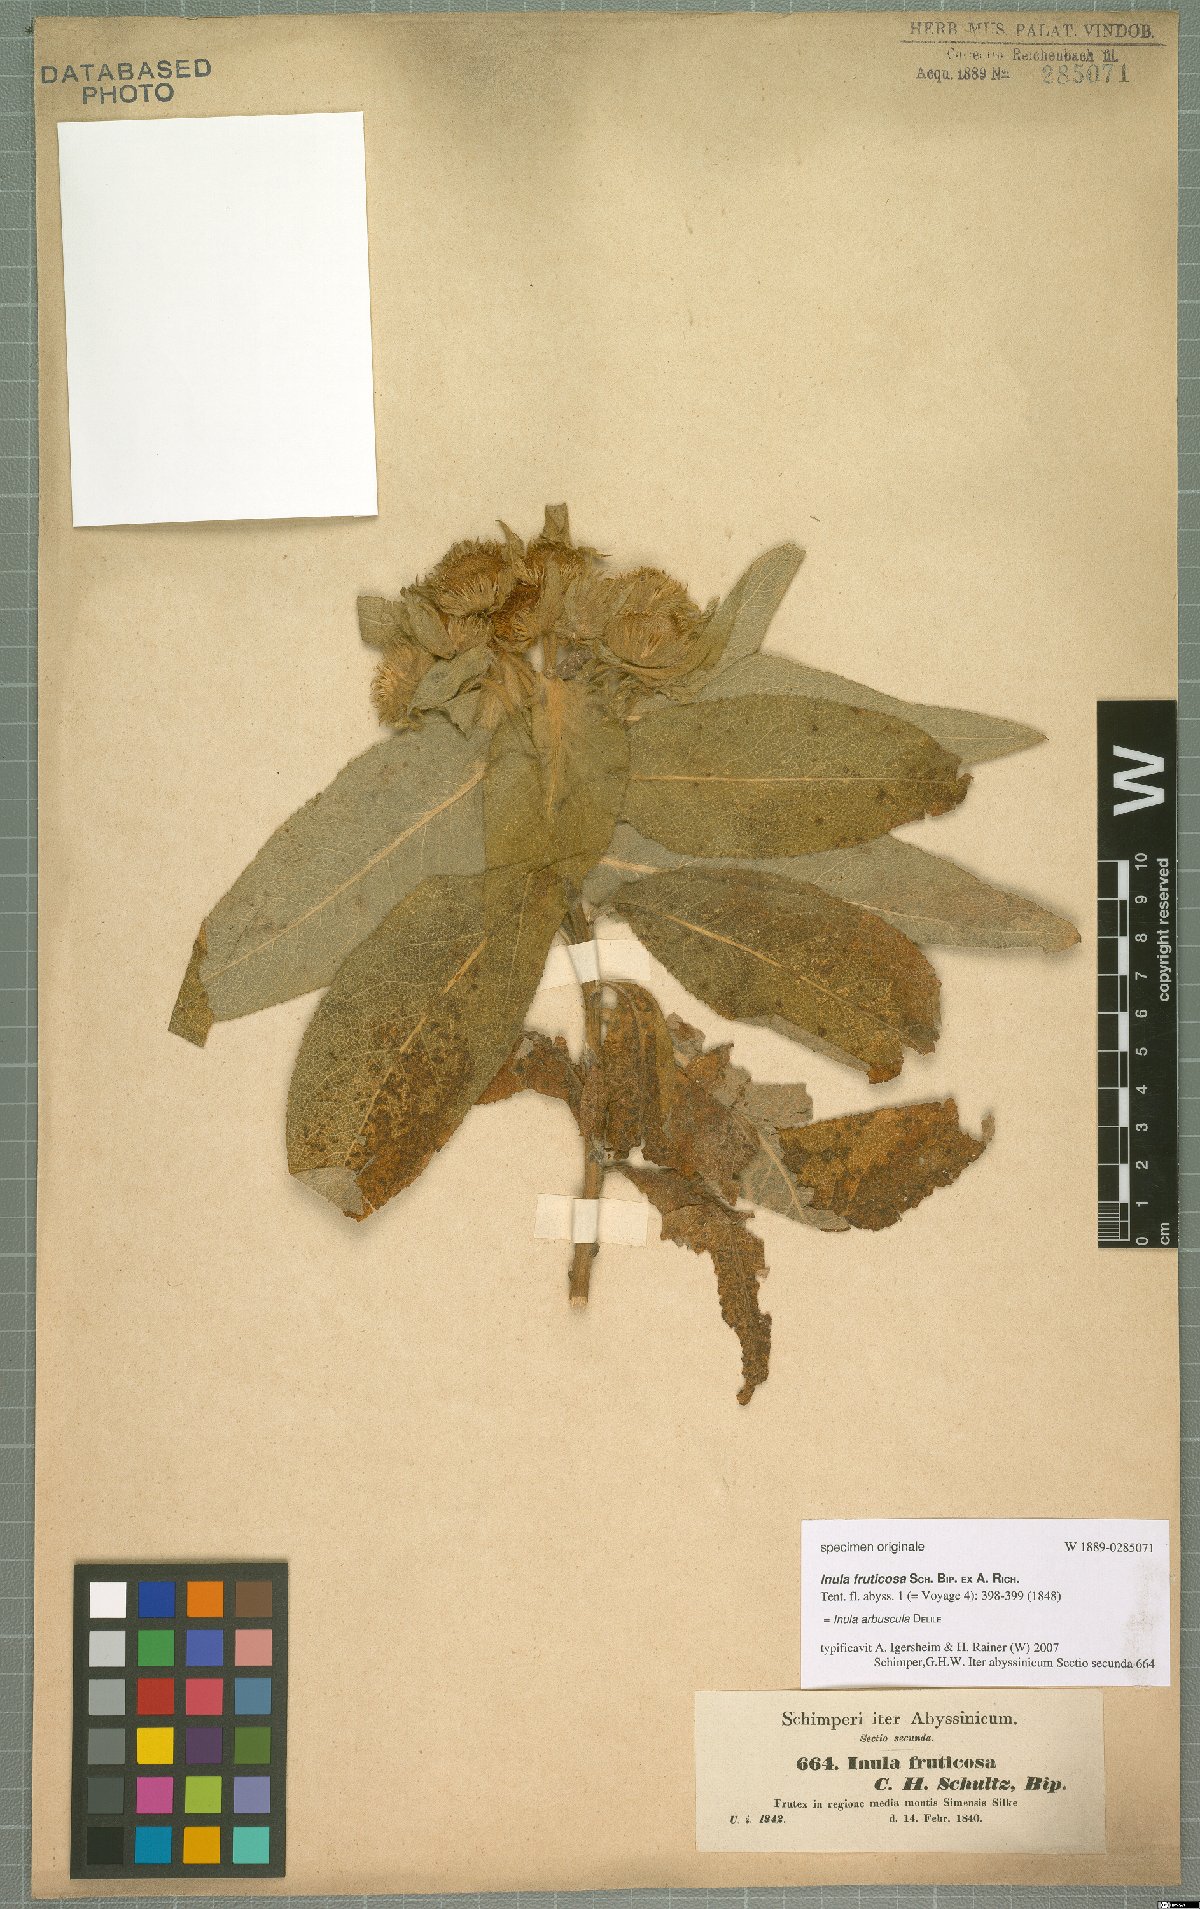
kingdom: Plantae
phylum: Tracheophyta
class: Magnoliopsida
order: Asterales
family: Asteraceae
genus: Inula
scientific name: Inula arbuscula
